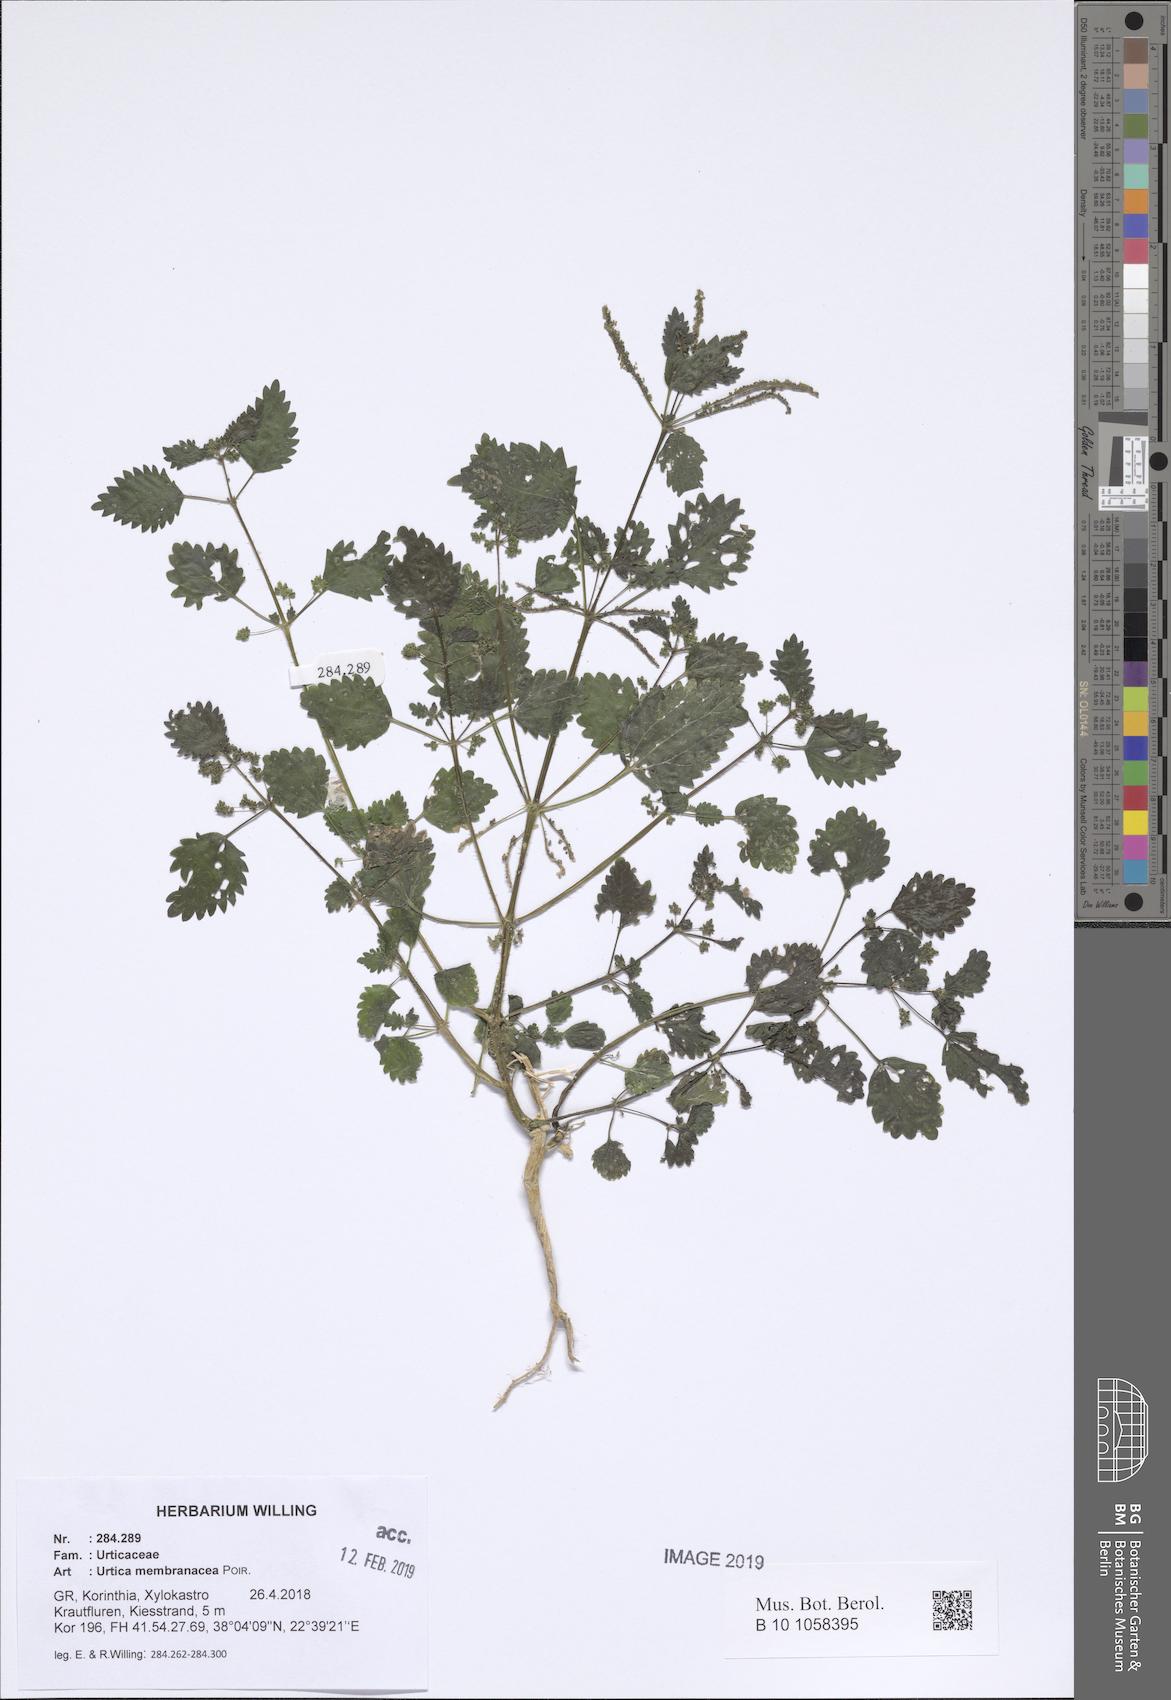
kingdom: Plantae
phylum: Tracheophyta
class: Magnoliopsida
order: Rosales
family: Urticaceae
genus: Urtica
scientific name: Urtica membranacea
